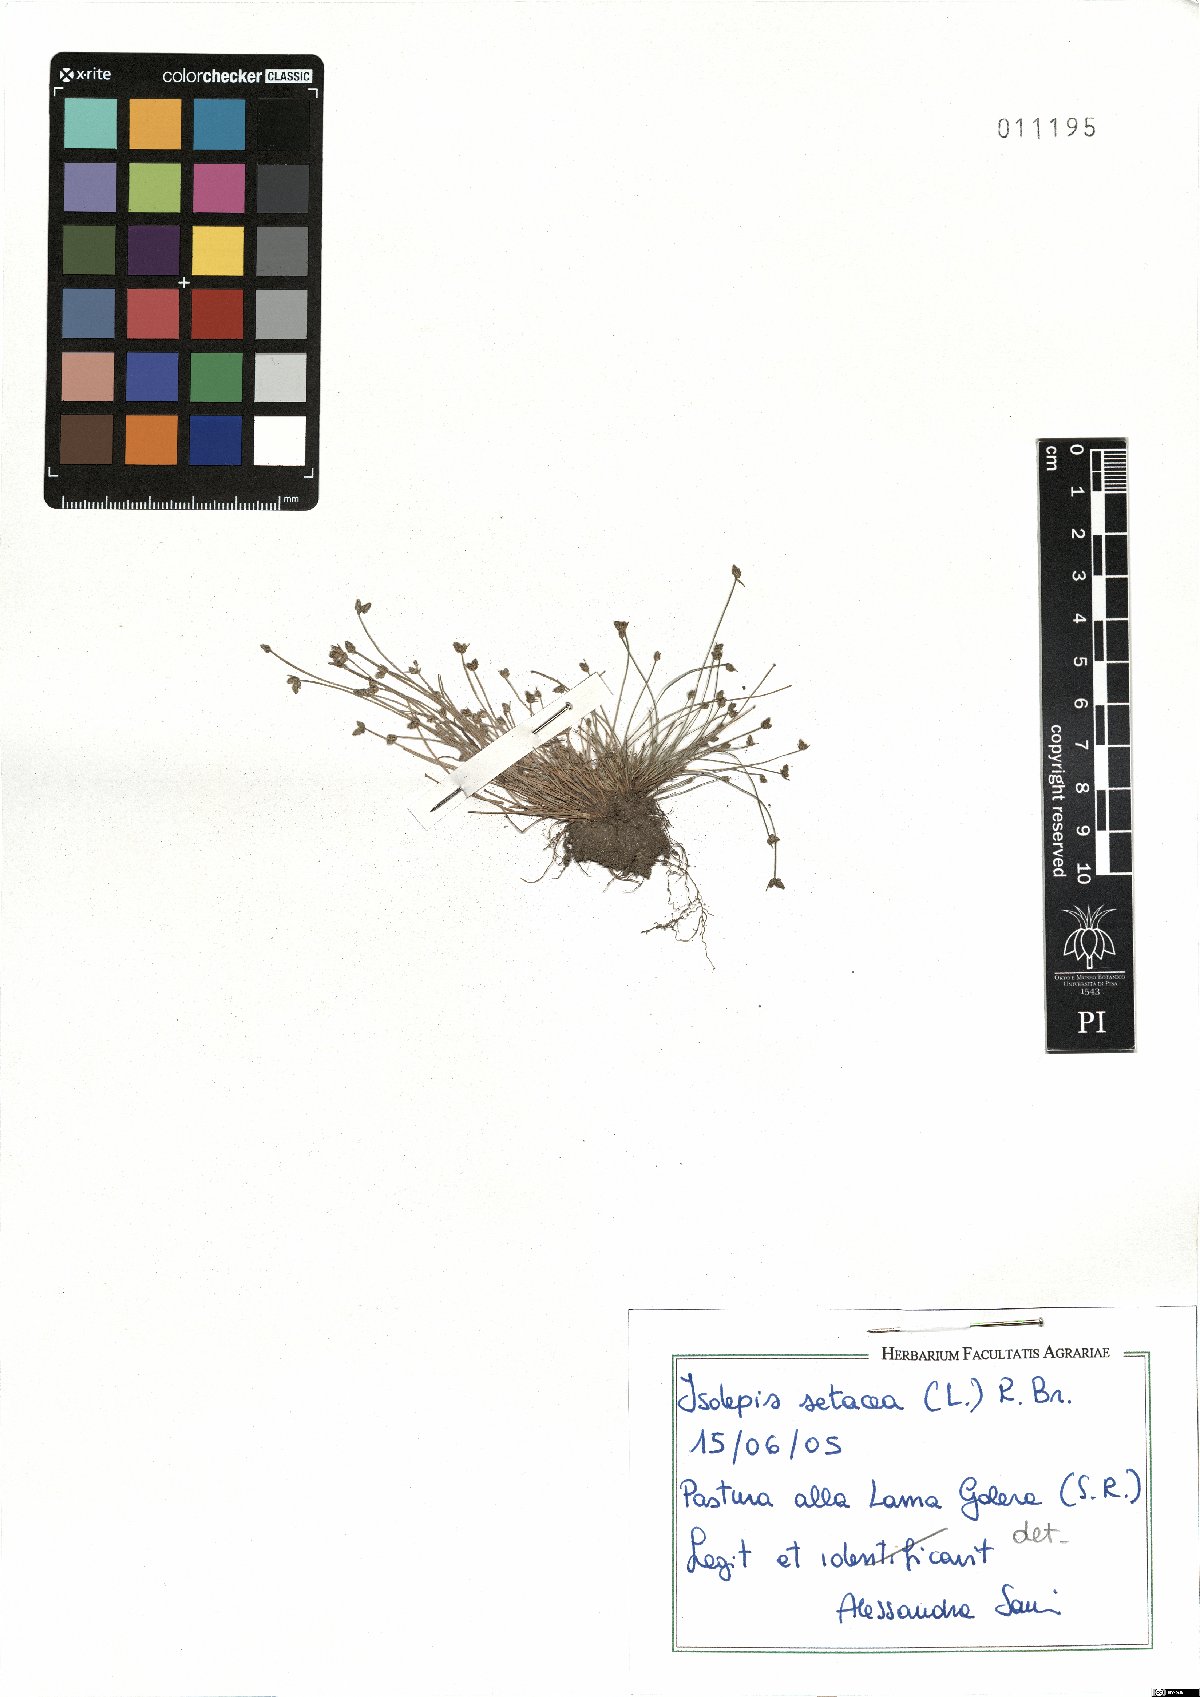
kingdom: Plantae
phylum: Tracheophyta
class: Liliopsida
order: Poales
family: Cyperaceae
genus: Isolepis
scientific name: Isolepis setacea
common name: Bristle club-rush
